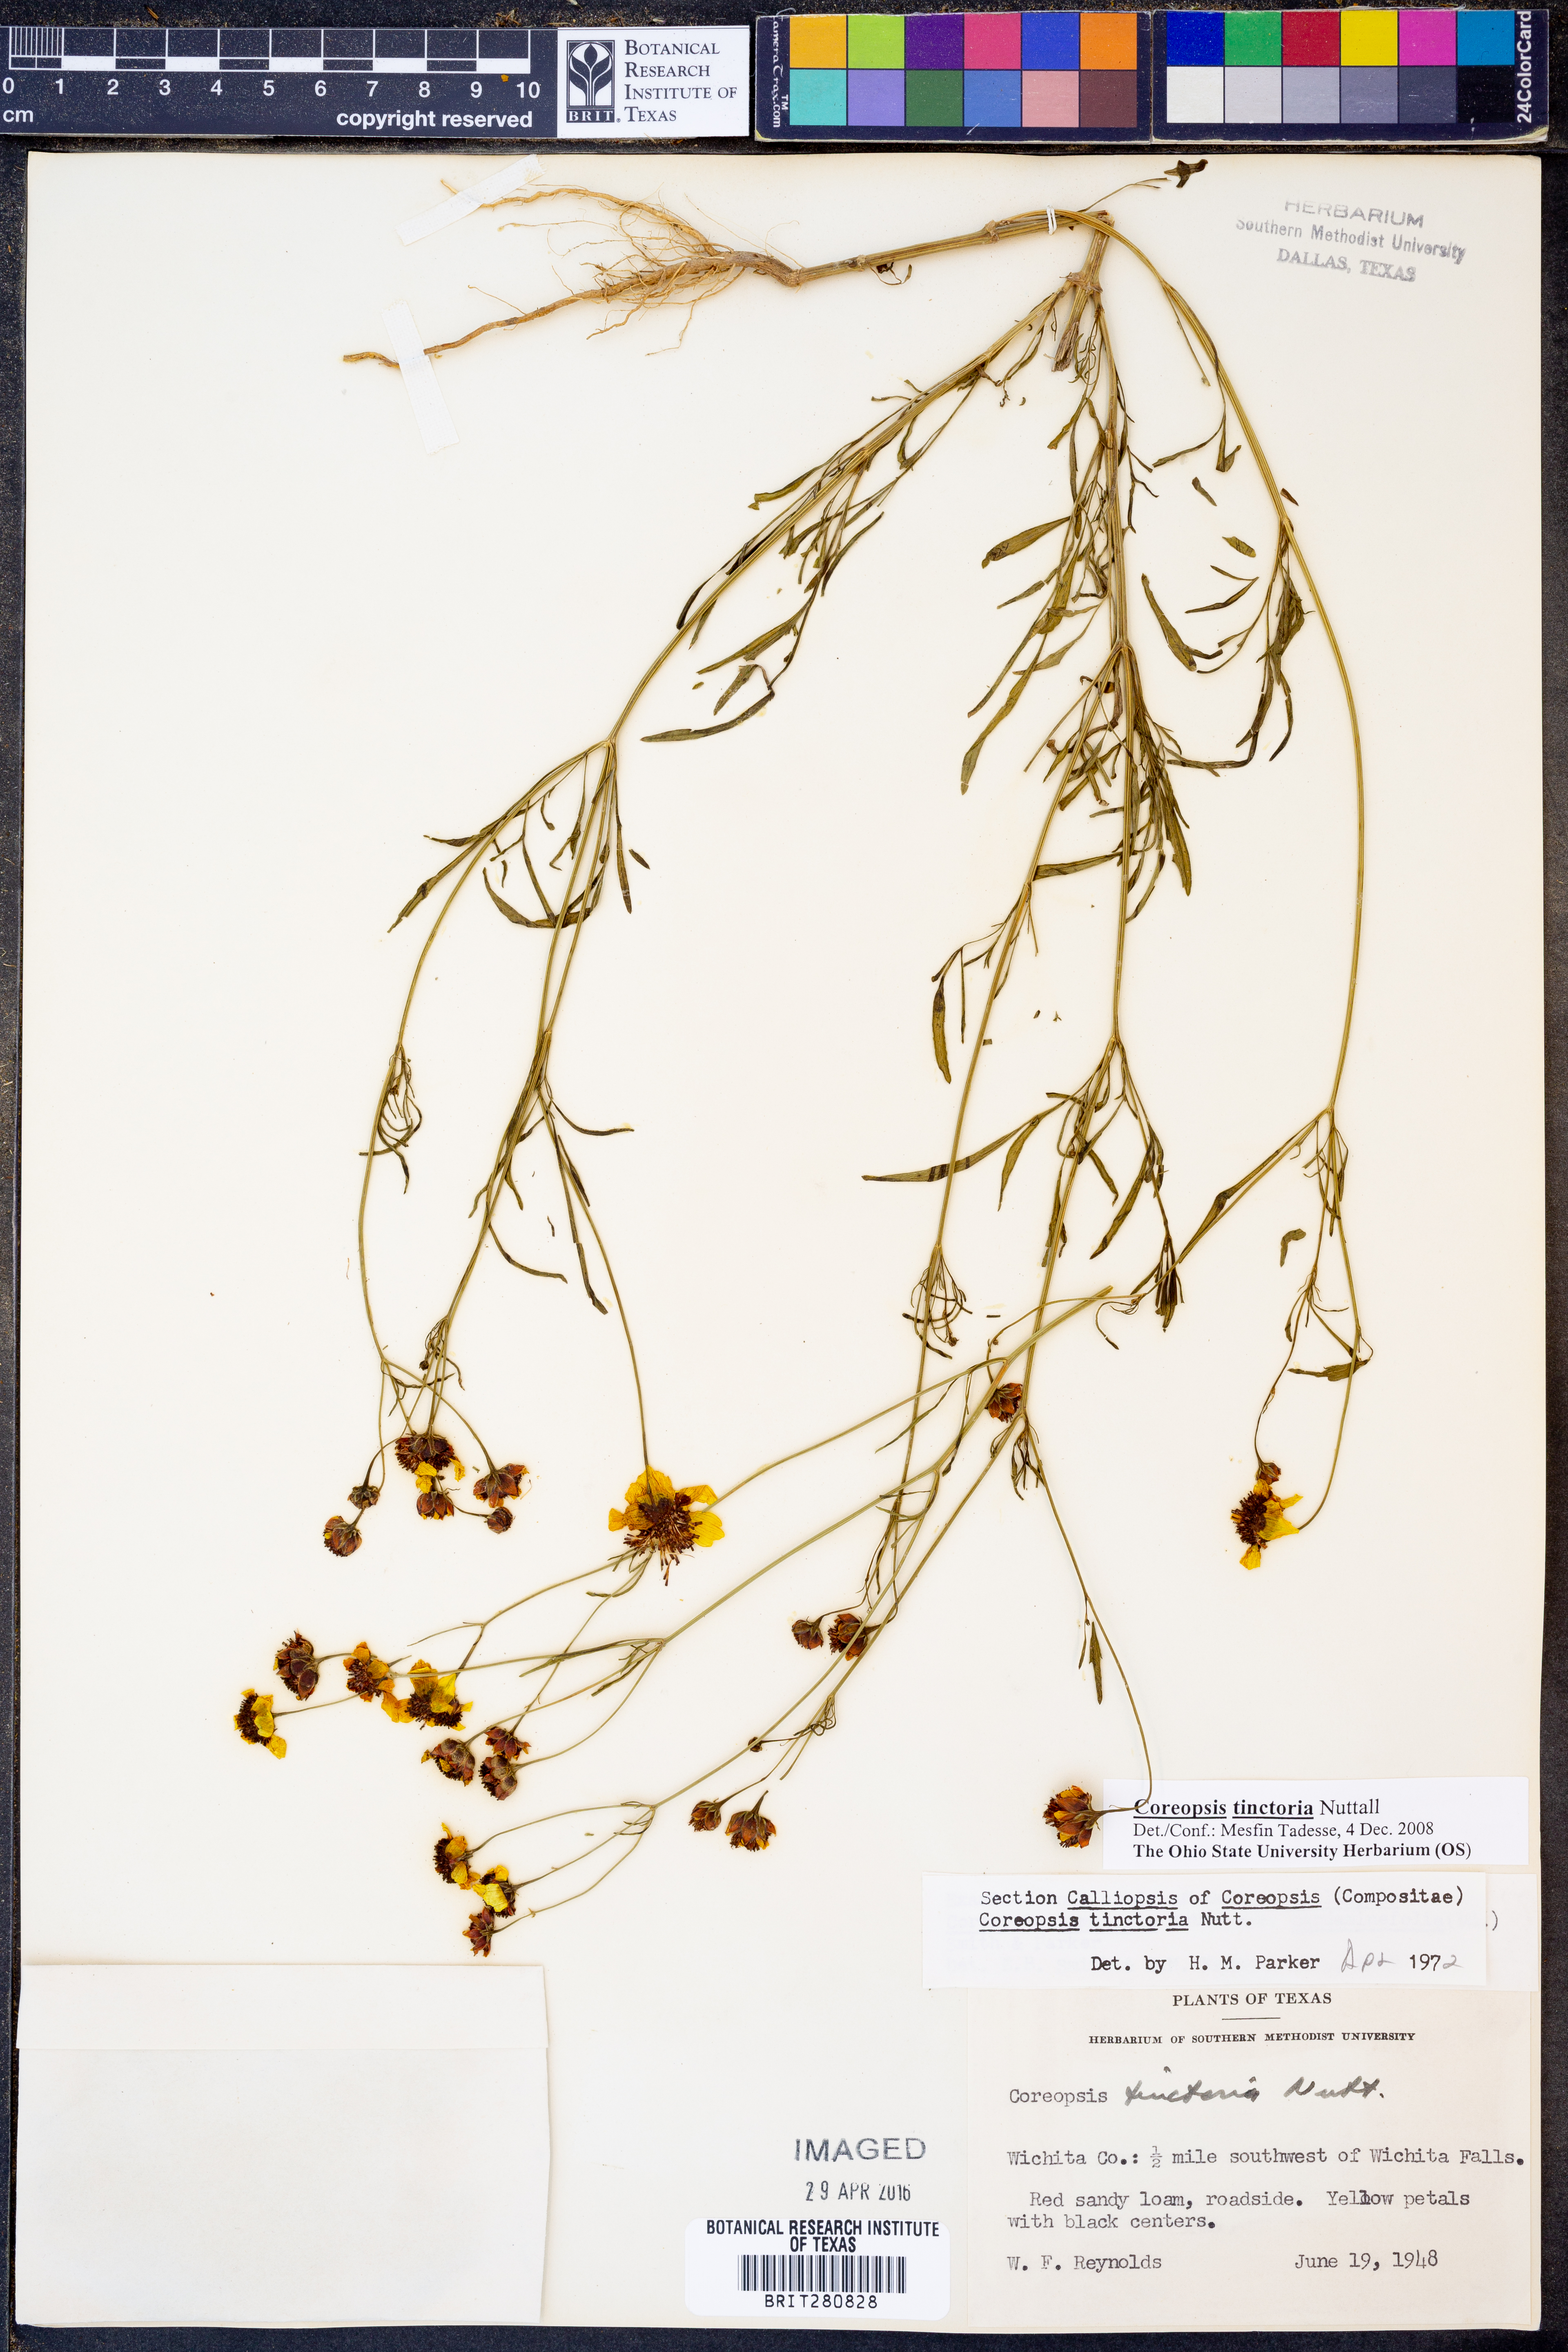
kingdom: Plantae
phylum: Tracheophyta
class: Magnoliopsida
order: Asterales
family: Asteraceae
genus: Coreopsis
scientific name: Coreopsis tinctoria
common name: Garden tickseed
